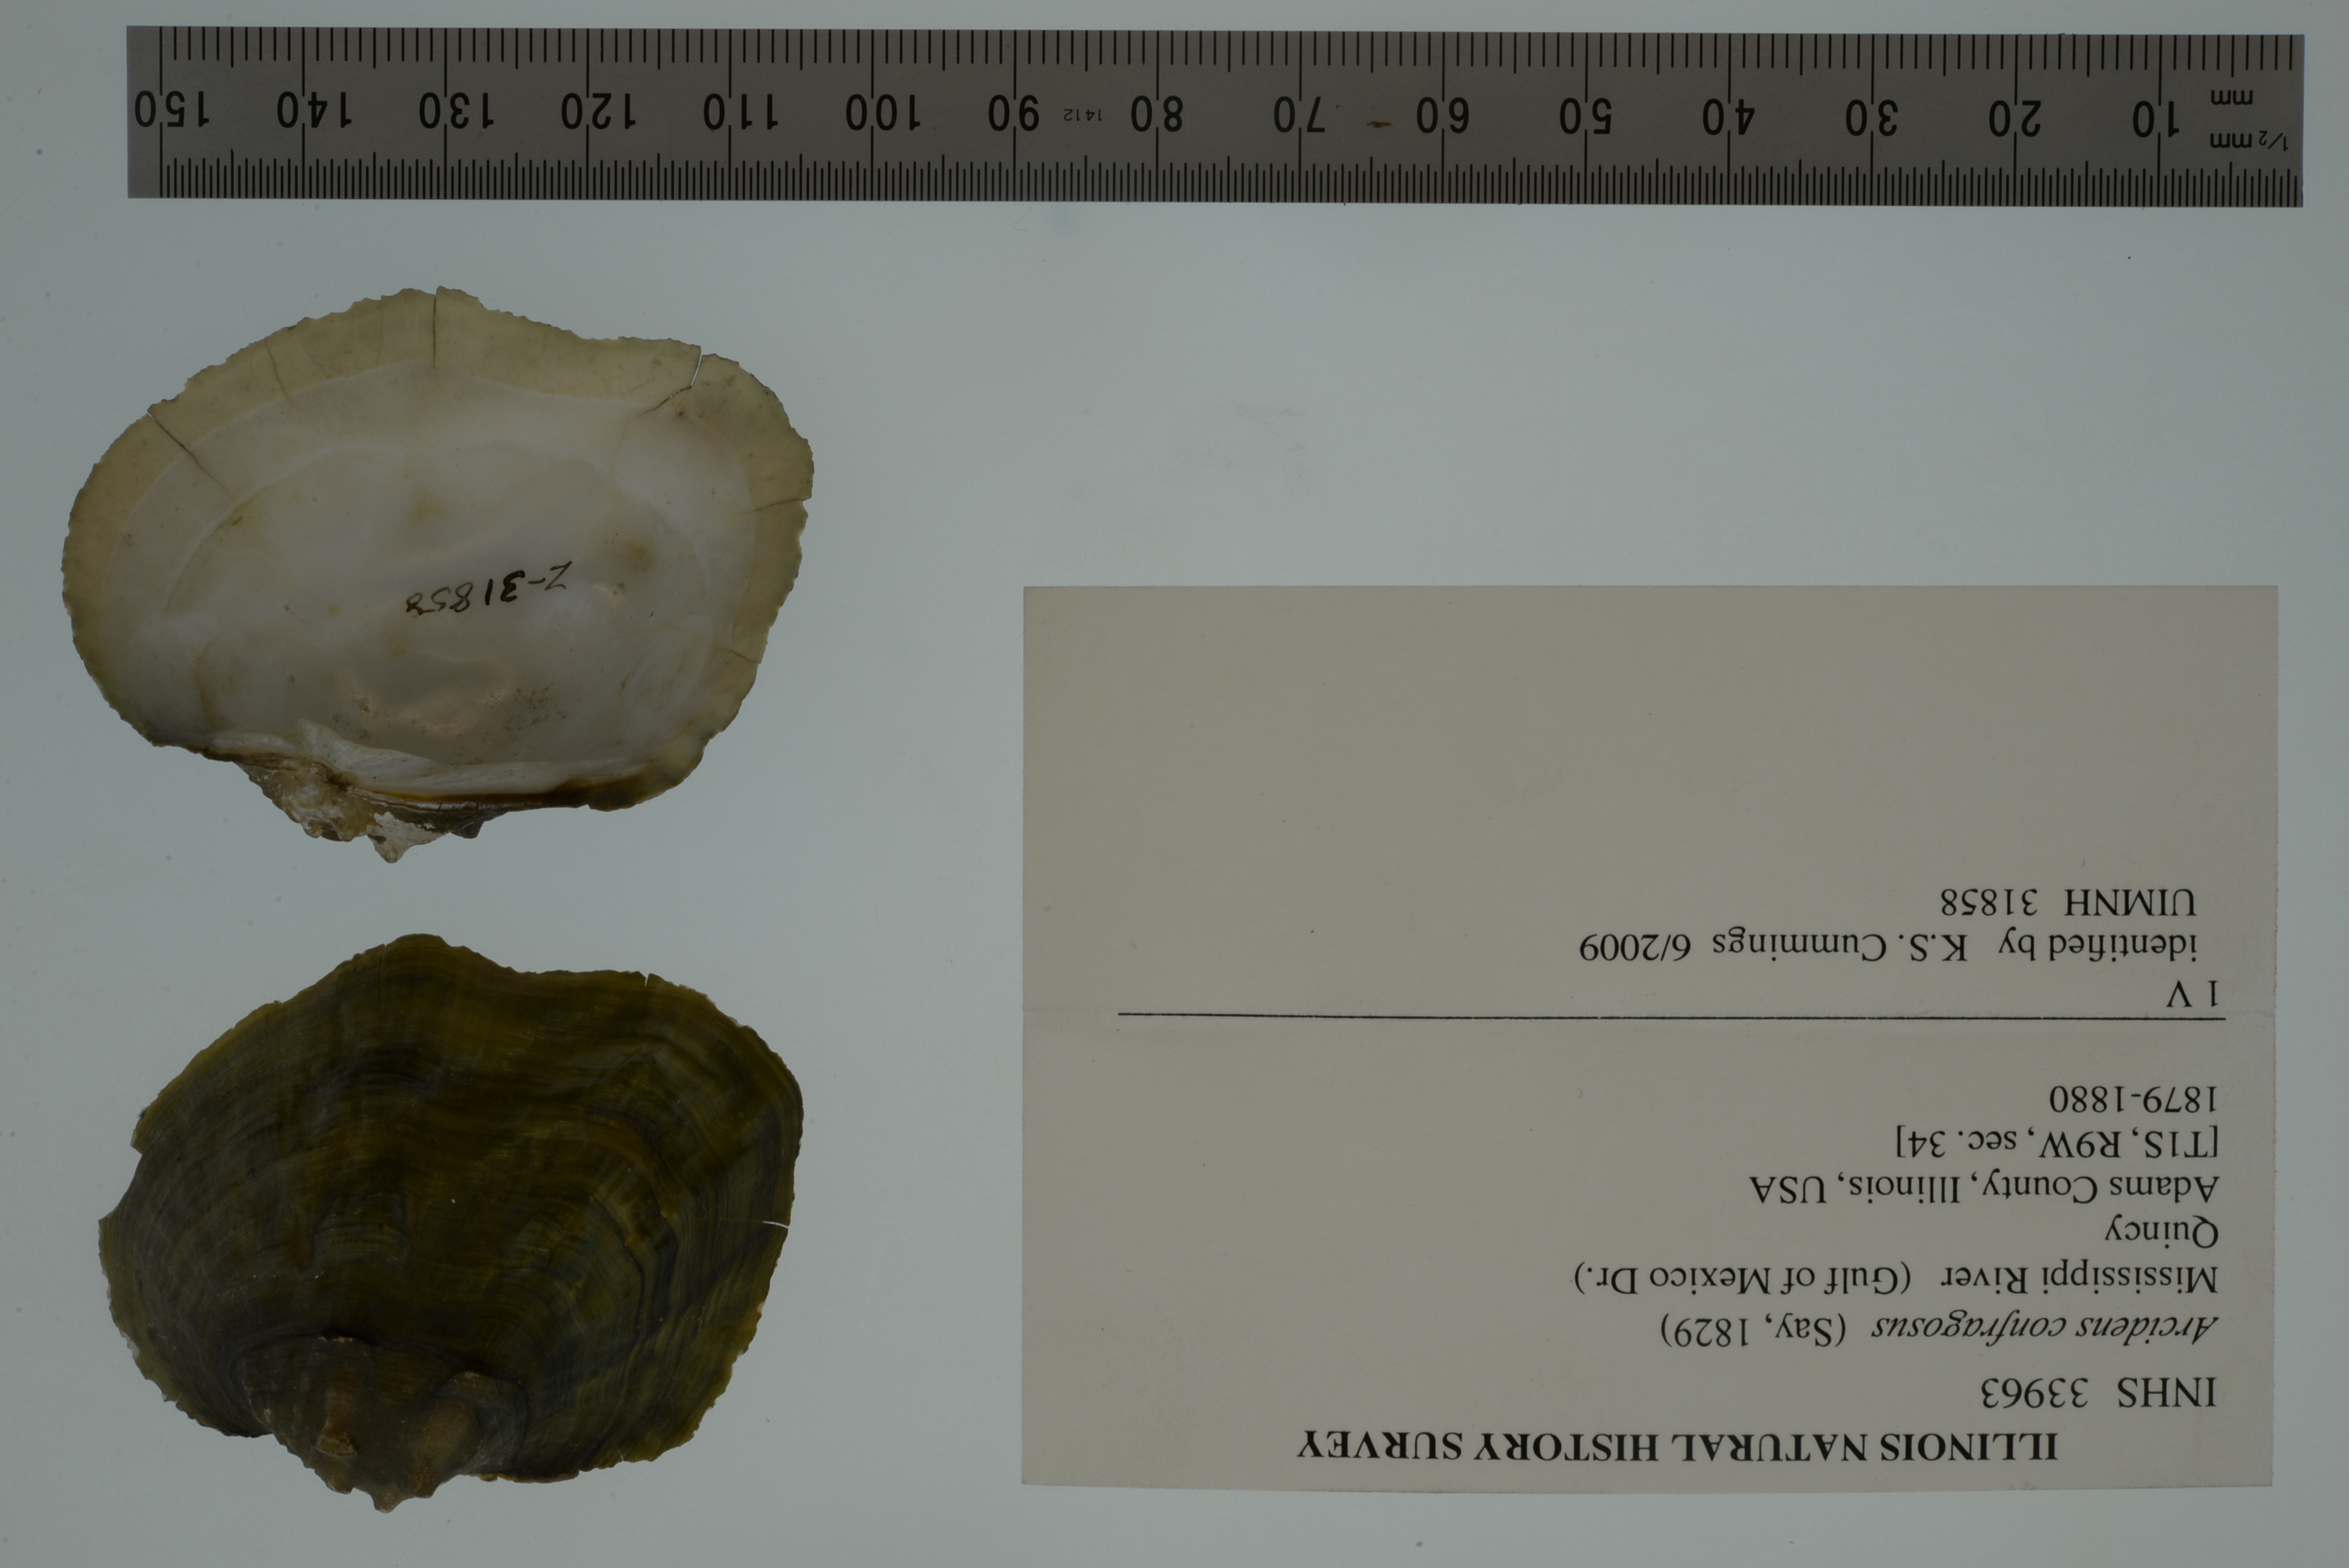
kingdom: Animalia
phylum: Mollusca
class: Bivalvia
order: Unionida
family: Unionidae
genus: Arcidens
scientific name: Arcidens confragosus
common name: Rock pocketbook
